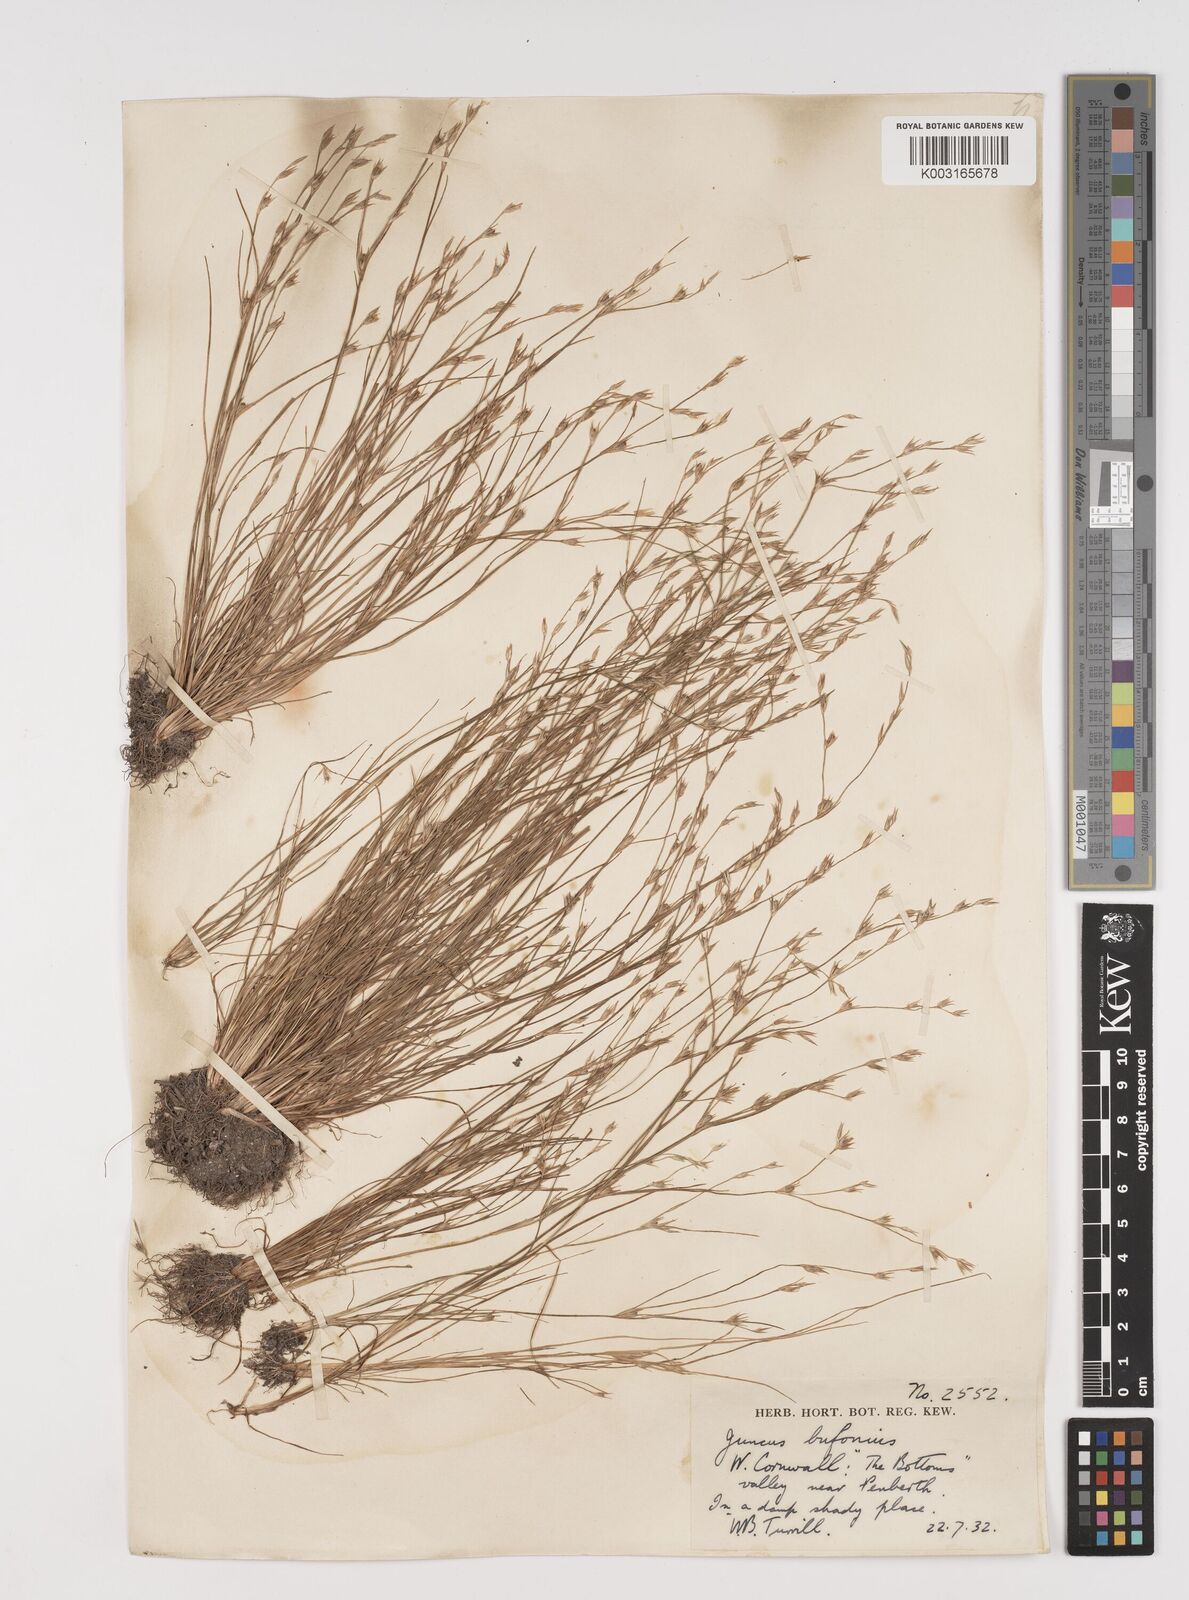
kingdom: Plantae
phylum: Tracheophyta
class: Liliopsida
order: Poales
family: Juncaceae
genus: Juncus
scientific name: Juncus bufonius
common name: Toad rush
